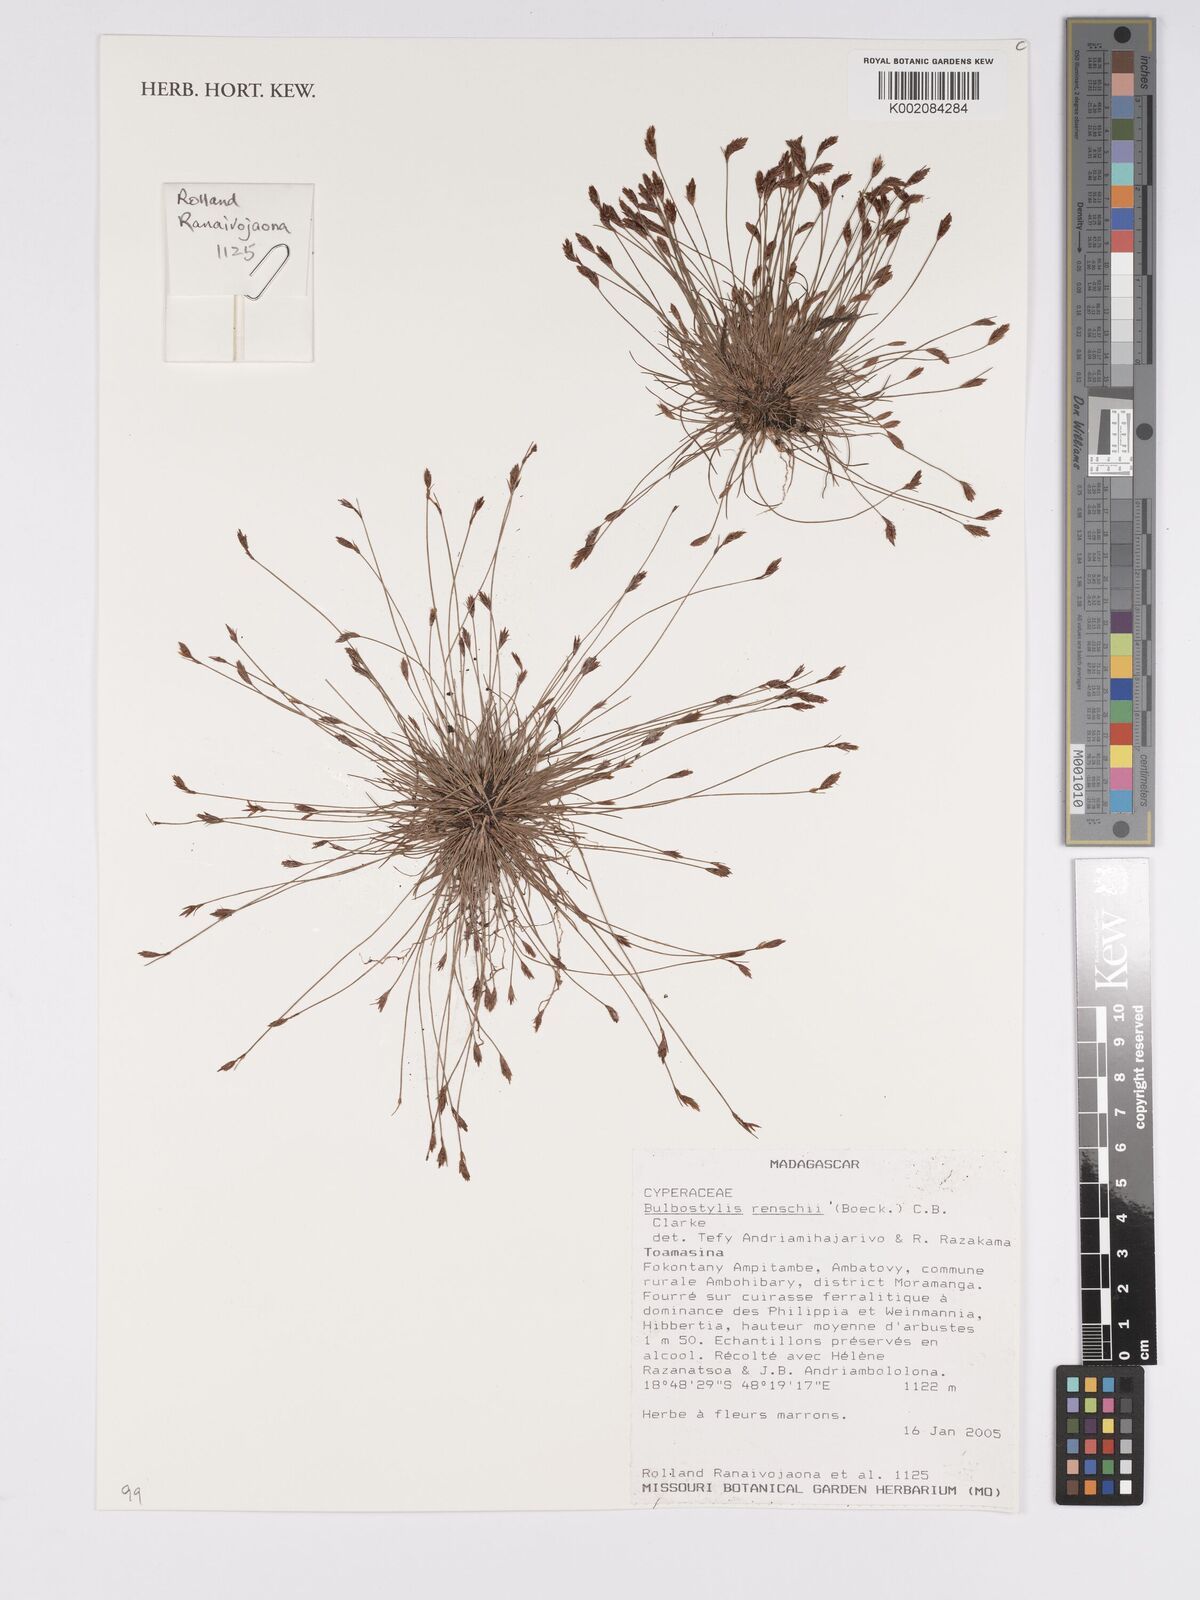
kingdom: Plantae
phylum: Tracheophyta
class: Liliopsida
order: Poales
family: Cyperaceae
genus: Bulbostylis
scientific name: Bulbostylis renschii
